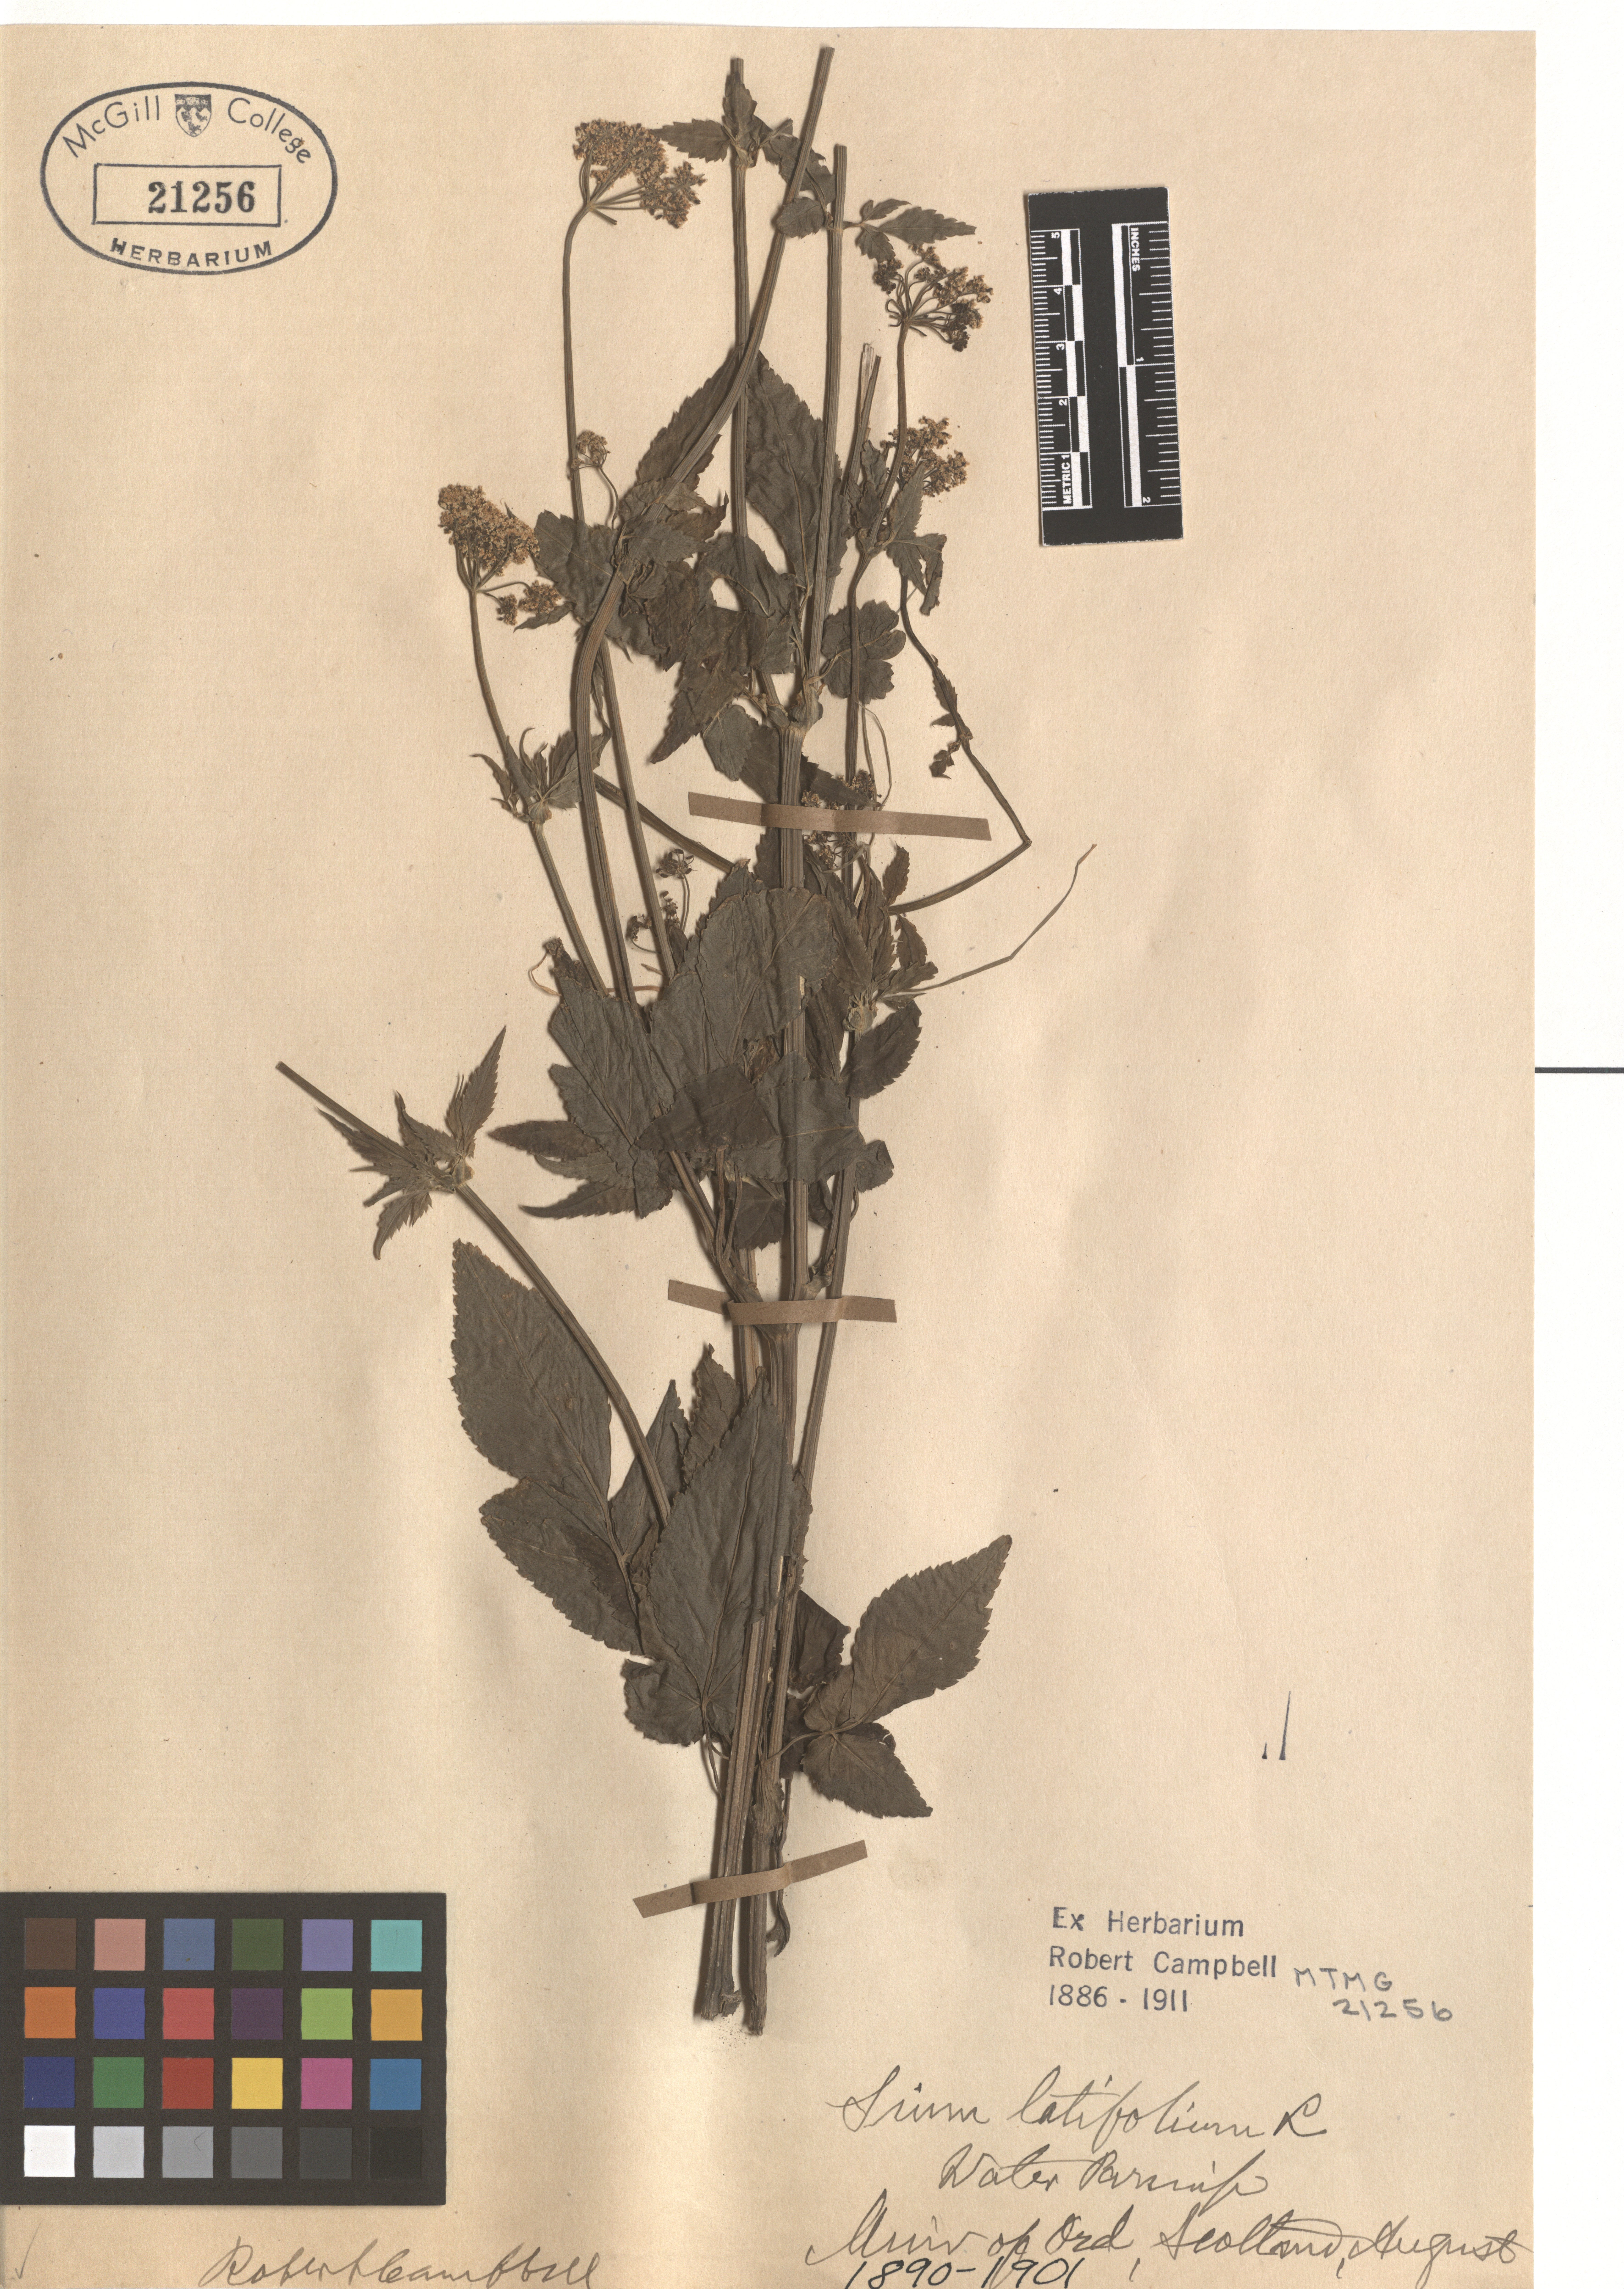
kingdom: Plantae
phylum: Tracheophyta
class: Magnoliopsida
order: Apiales
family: Apiaceae
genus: Sium
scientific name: Sium latifolium
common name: Greater water-parsnip
